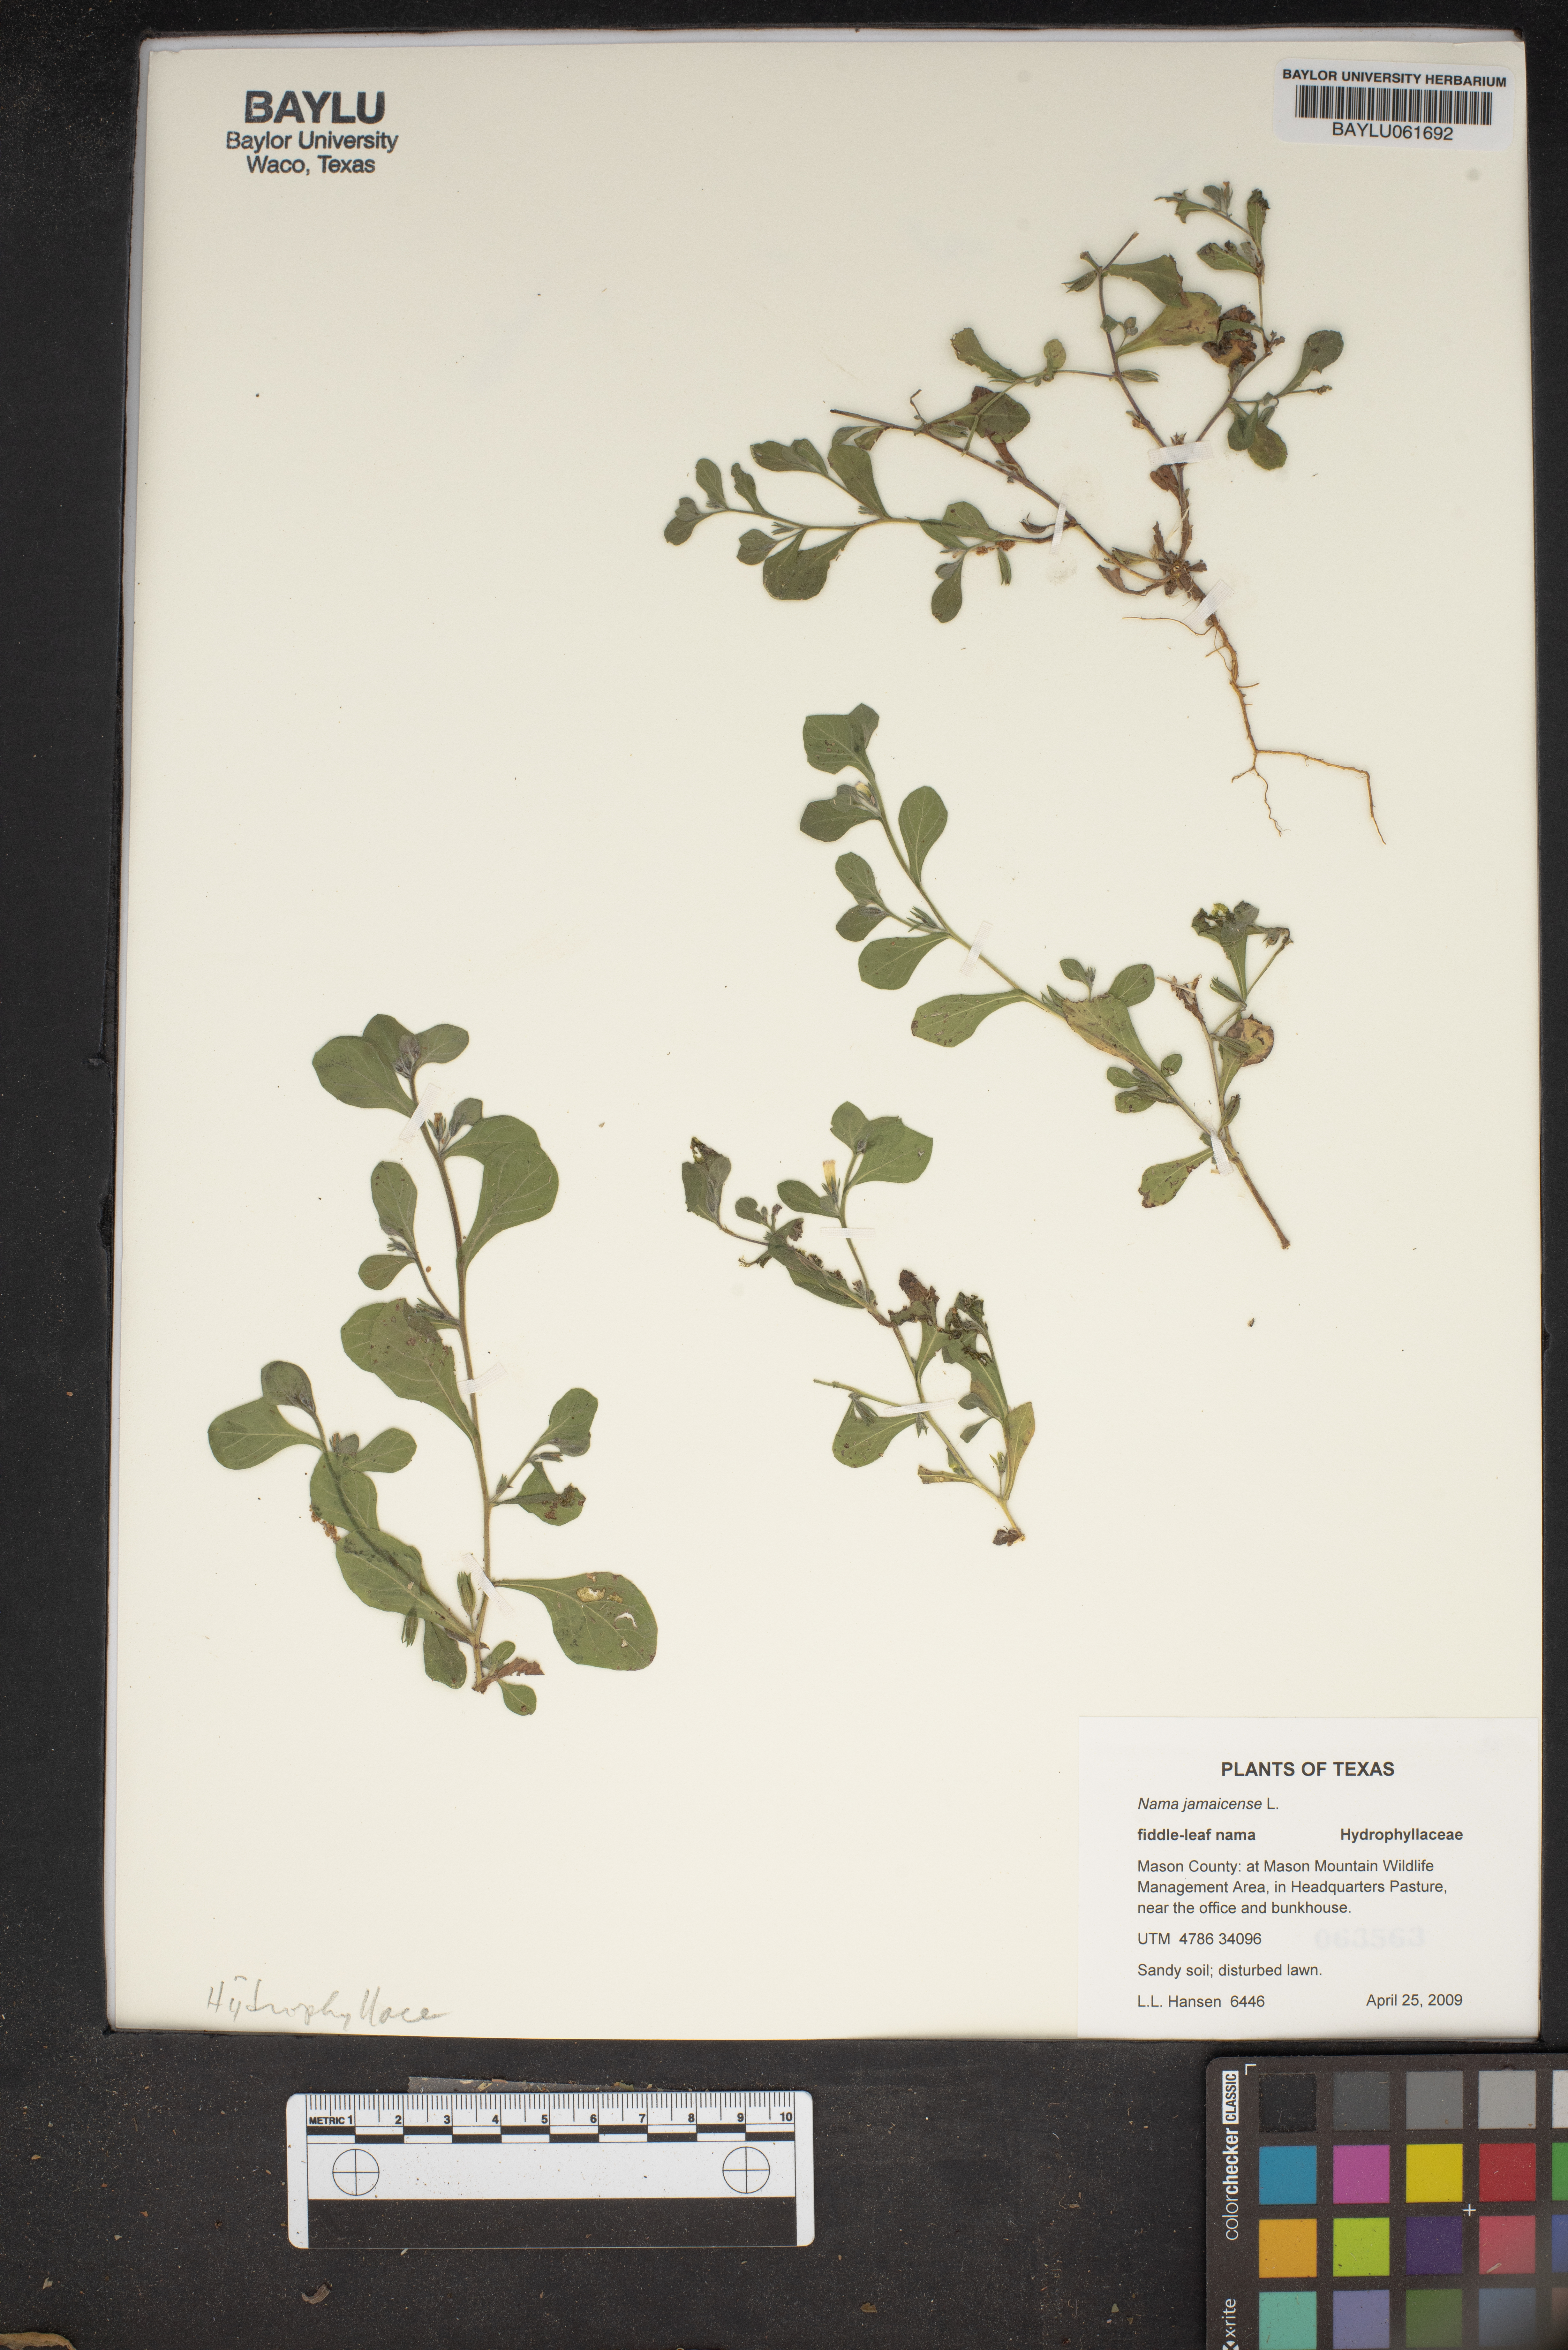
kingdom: Plantae
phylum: Tracheophyta
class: Magnoliopsida
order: Boraginales
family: Namaceae
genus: Nama
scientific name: Nama jamaicense
